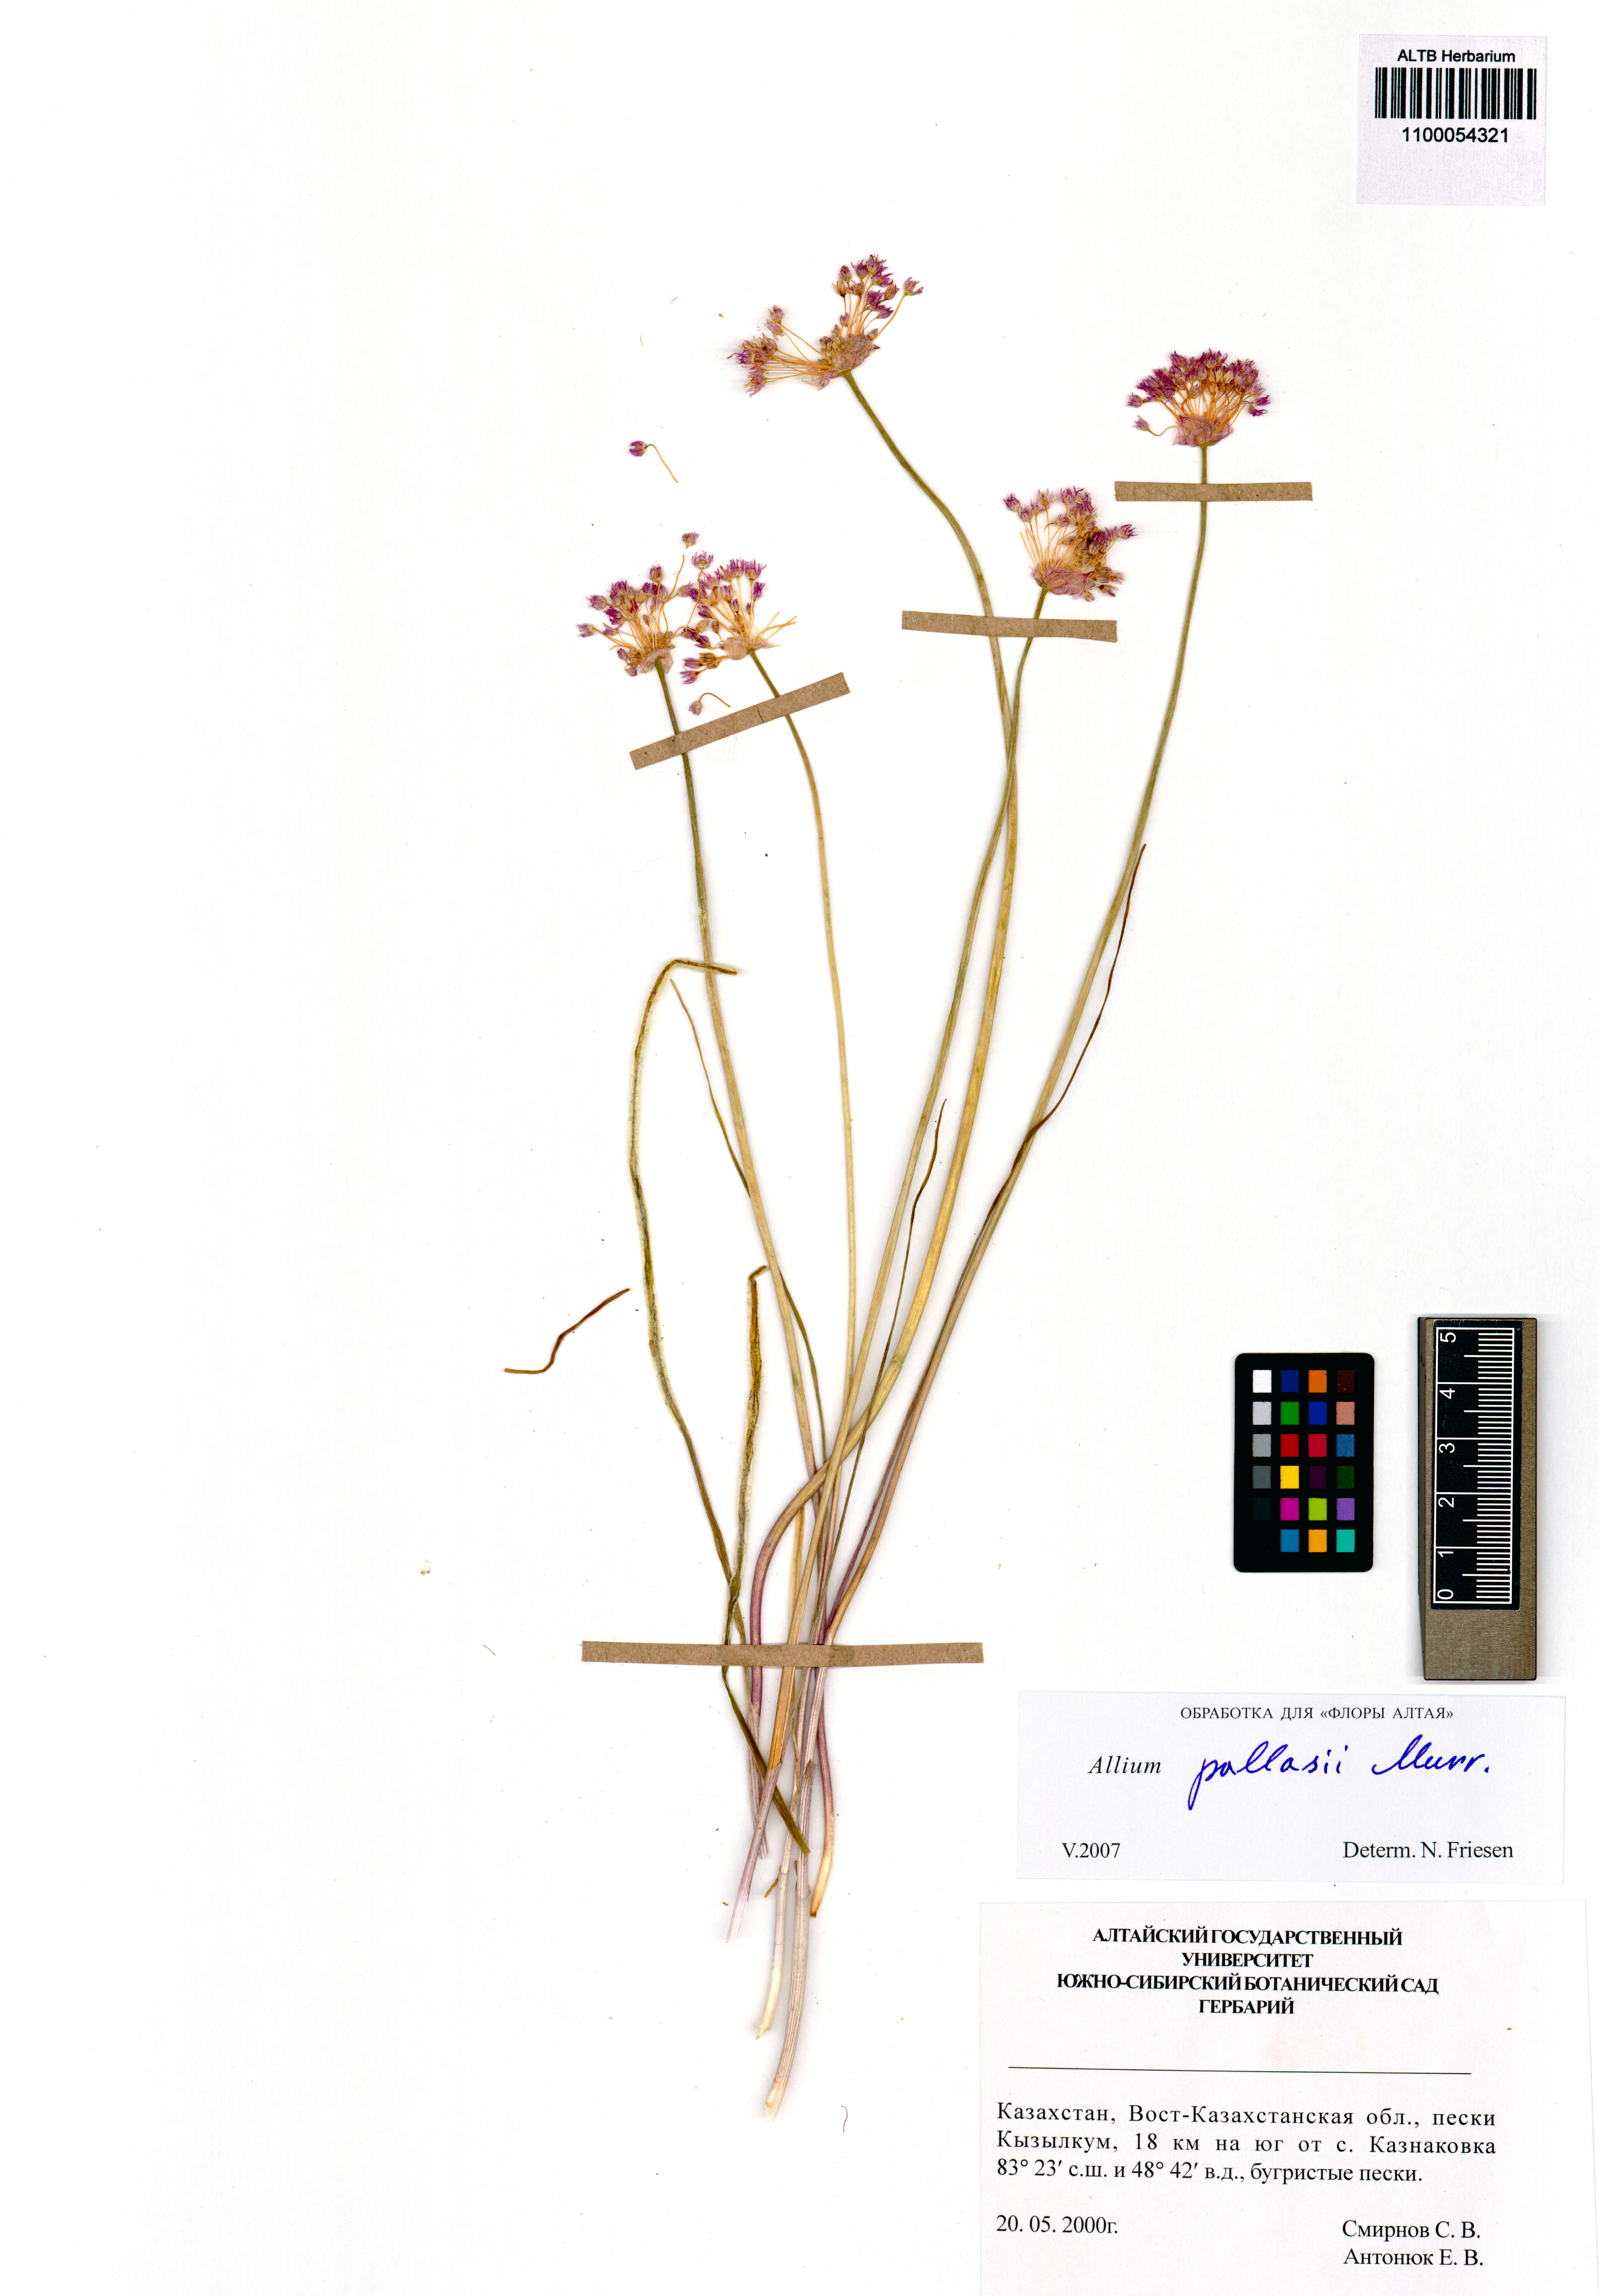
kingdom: Plantae
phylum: Tracheophyta
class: Liliopsida
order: Asparagales
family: Amaryllidaceae
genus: Allium
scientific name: Allium pallasii
